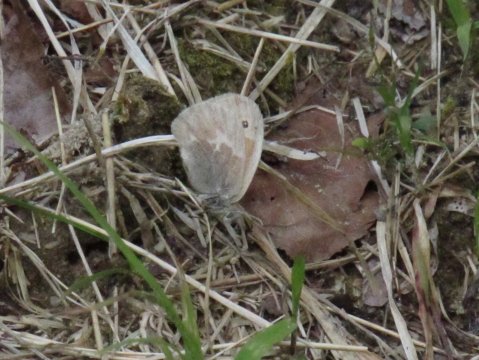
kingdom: Animalia
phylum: Arthropoda
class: Insecta
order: Lepidoptera
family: Nymphalidae
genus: Coenonympha
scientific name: Coenonympha tullia
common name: Large Heath
